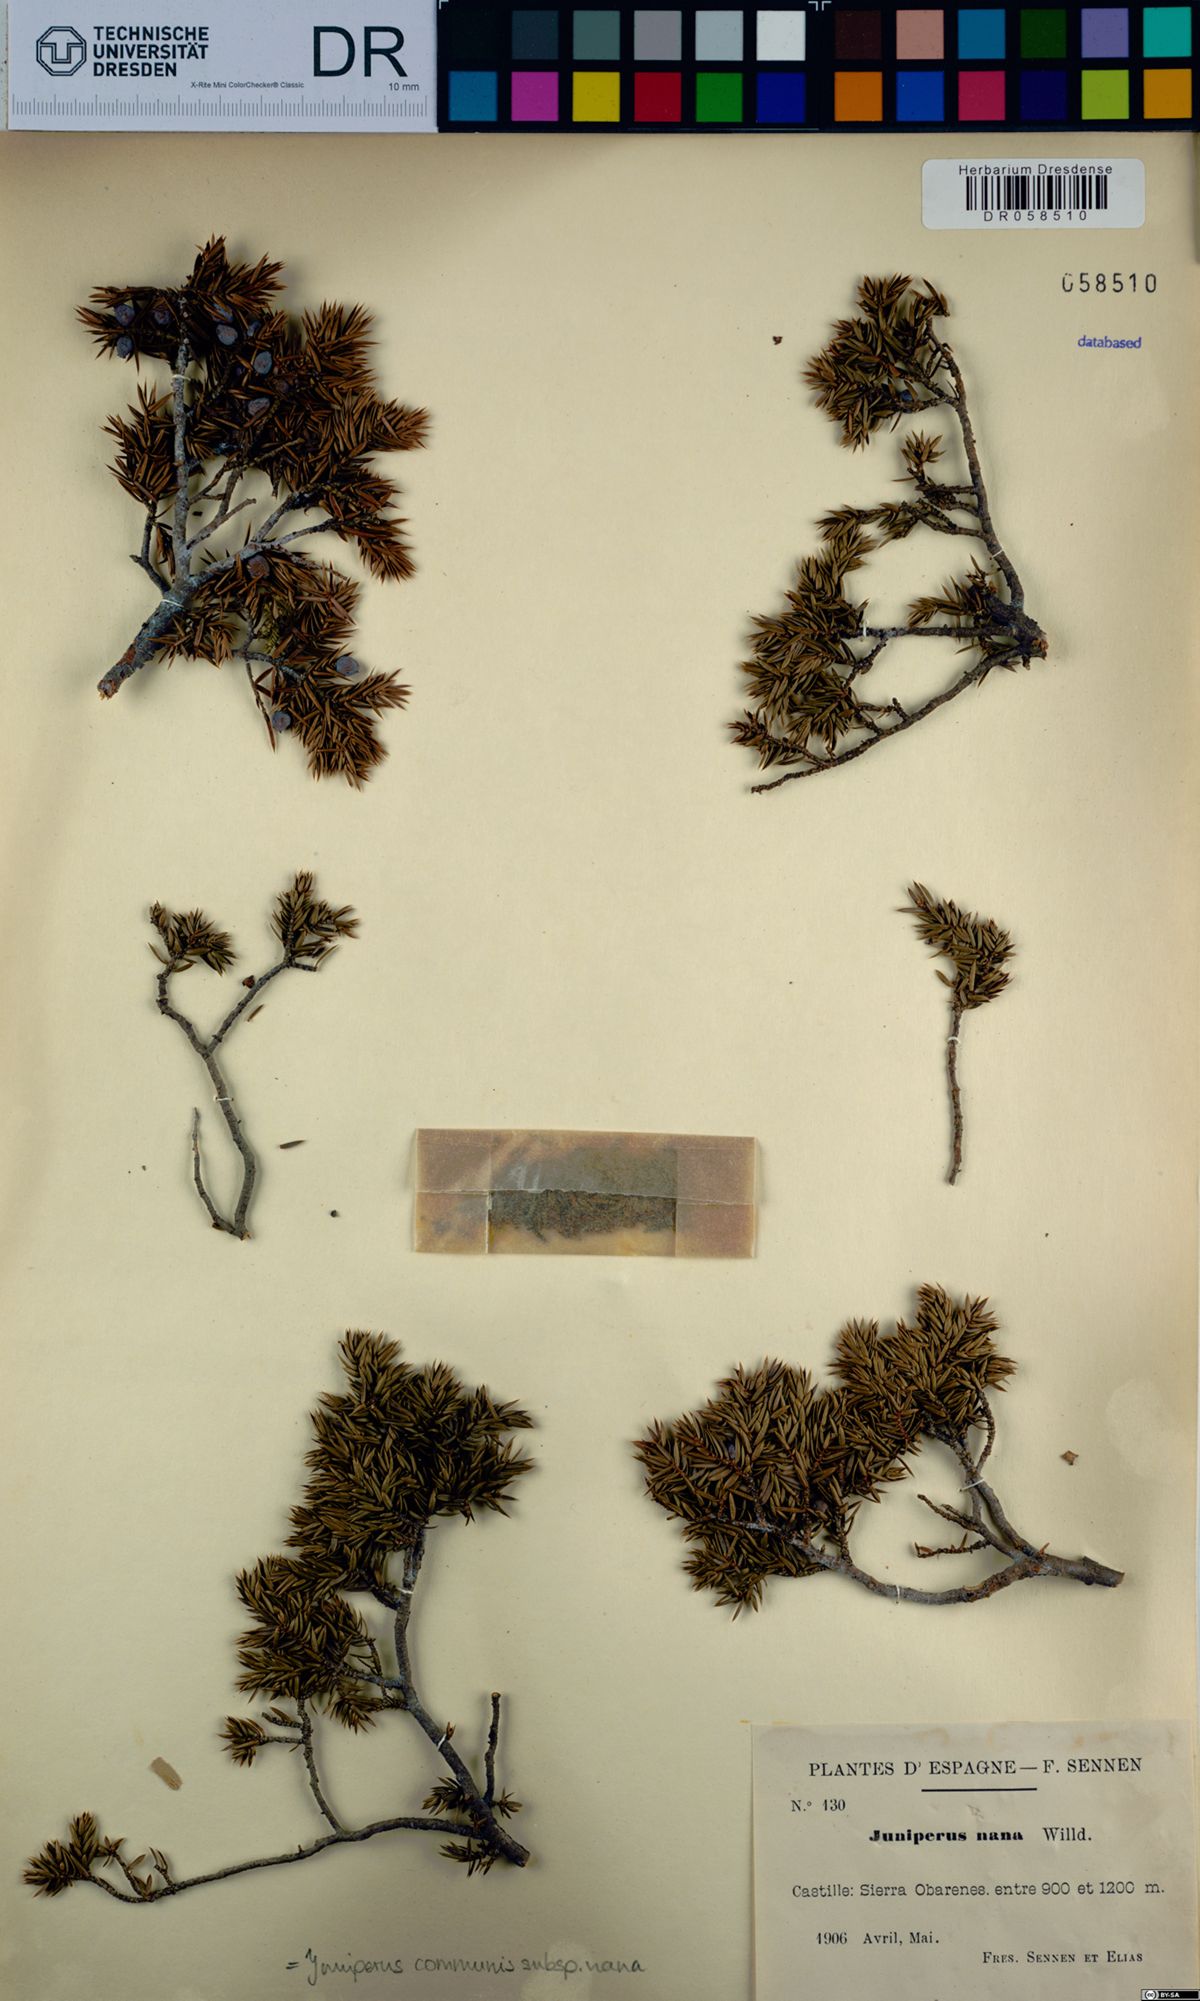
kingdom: Plantae
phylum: Tracheophyta
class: Pinopsida
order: Pinales
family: Cupressaceae
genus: Juniperus
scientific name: Juniperus communis
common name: Common juniper
